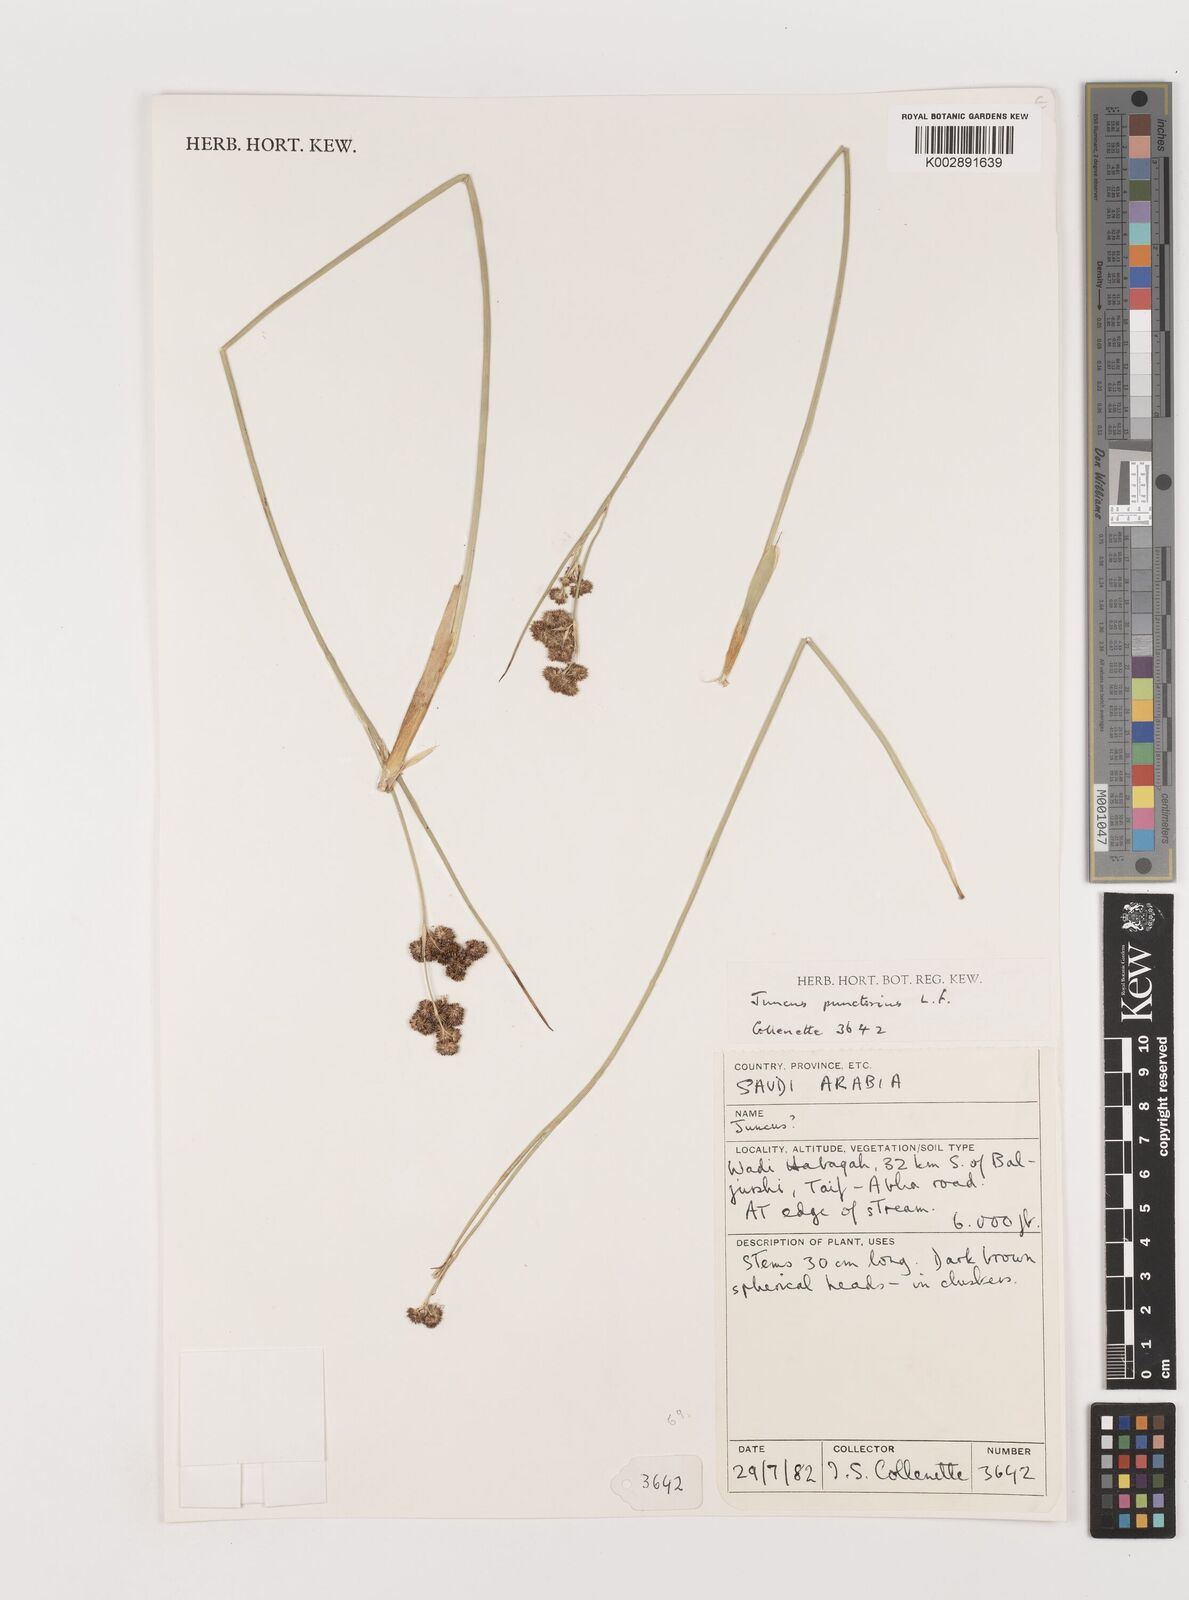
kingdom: Plantae
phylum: Tracheophyta
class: Liliopsida
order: Poales
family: Juncaceae
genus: Juncus
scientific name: Juncus punctorius
